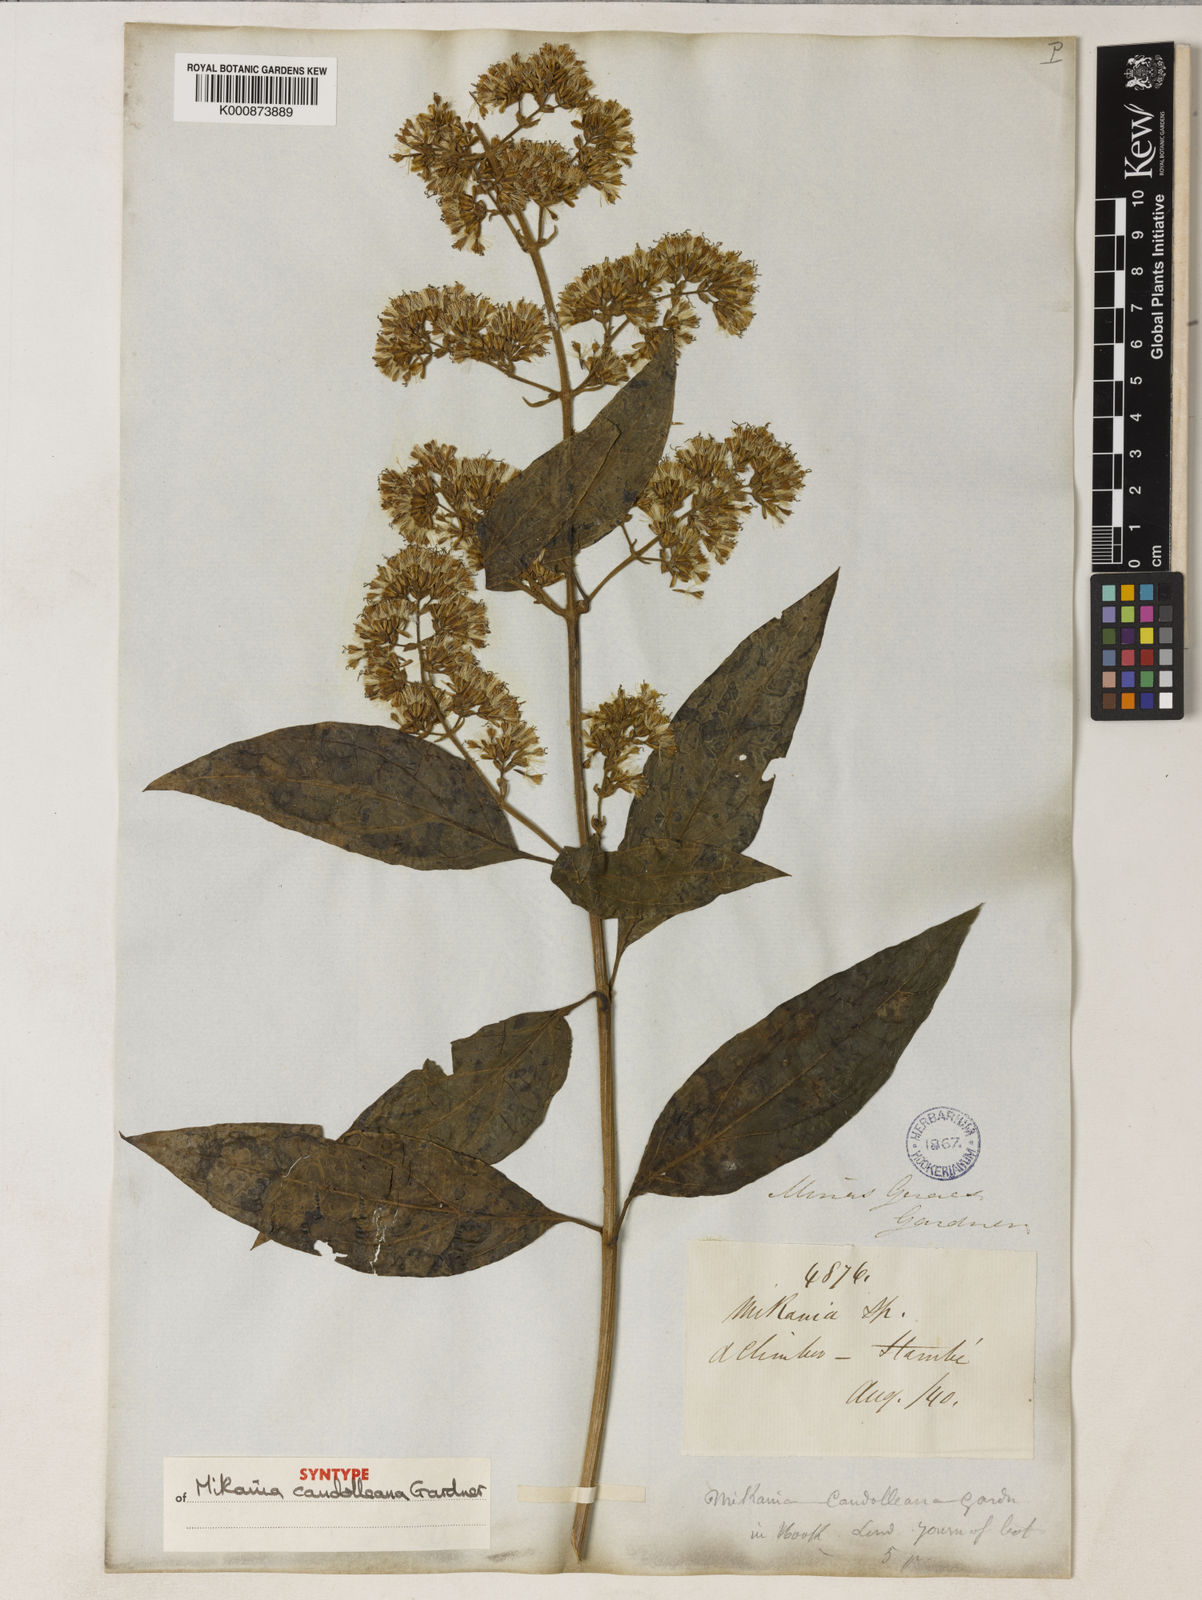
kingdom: Plantae
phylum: Tracheophyta
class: Magnoliopsida
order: Asterales
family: Asteraceae
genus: Mikania
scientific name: Mikania candolleana
